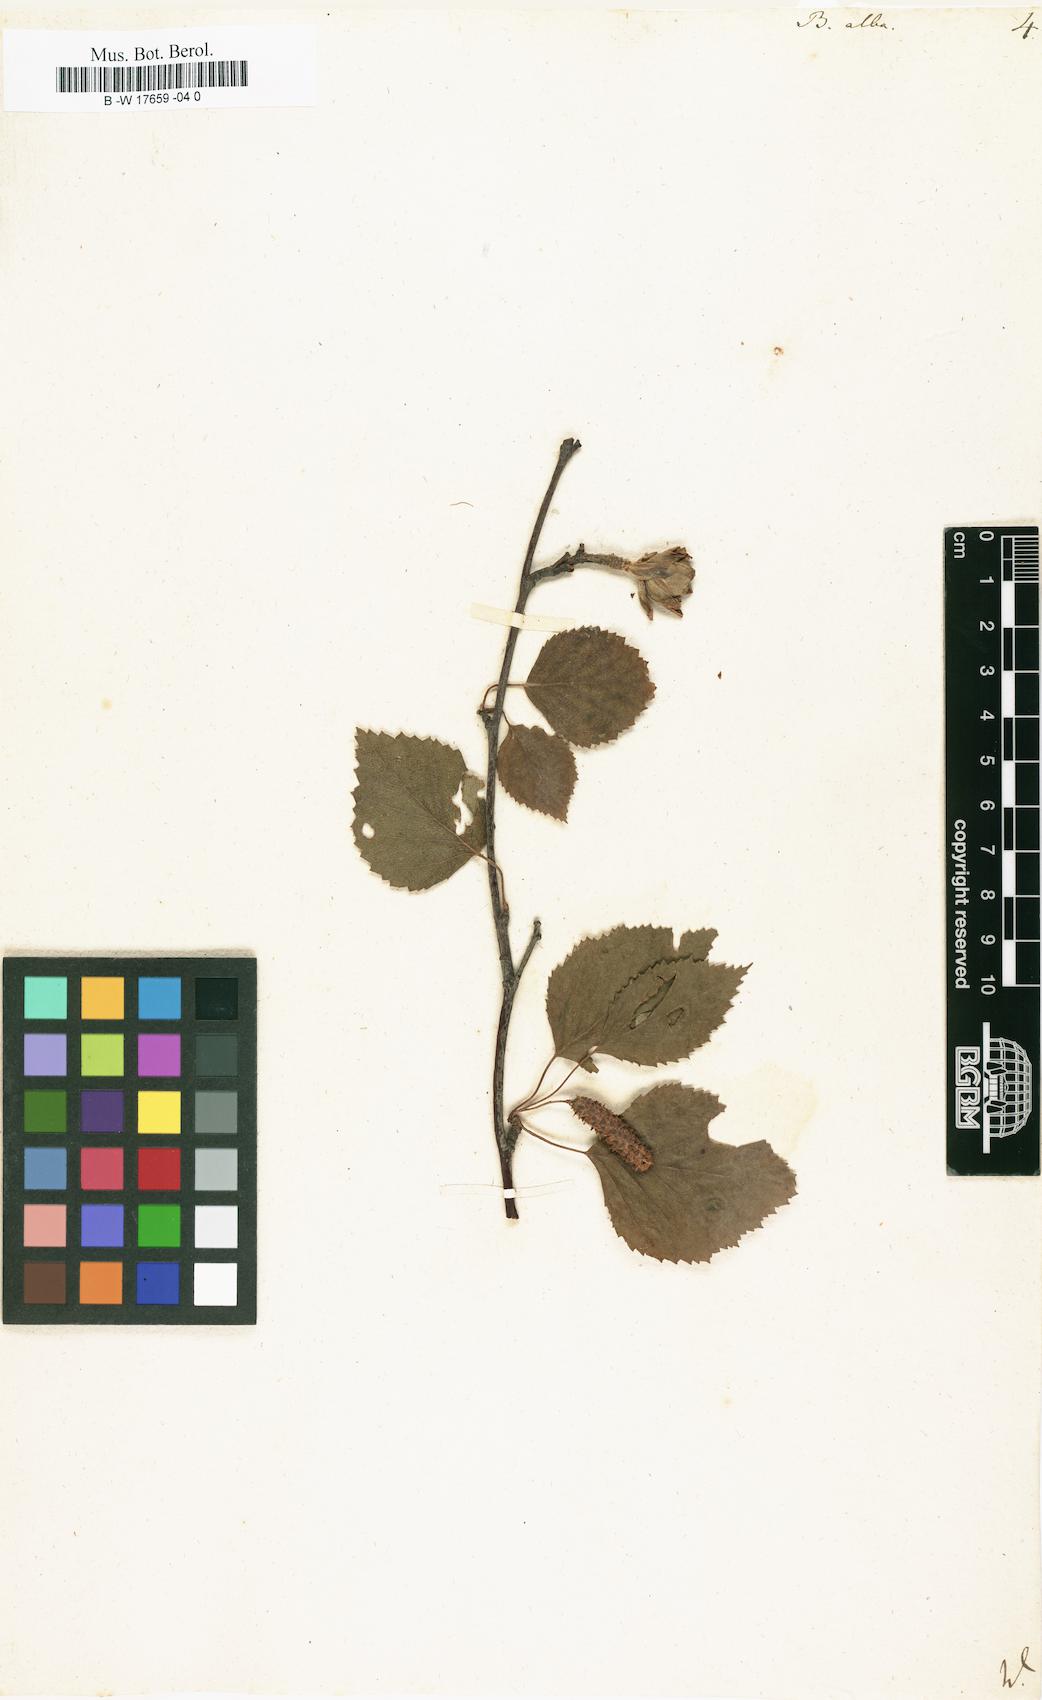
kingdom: Plantae
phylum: Tracheophyta
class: Magnoliopsida
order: Fagales
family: Betulaceae
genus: Betula
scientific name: Betula pubescens
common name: Downy birch
